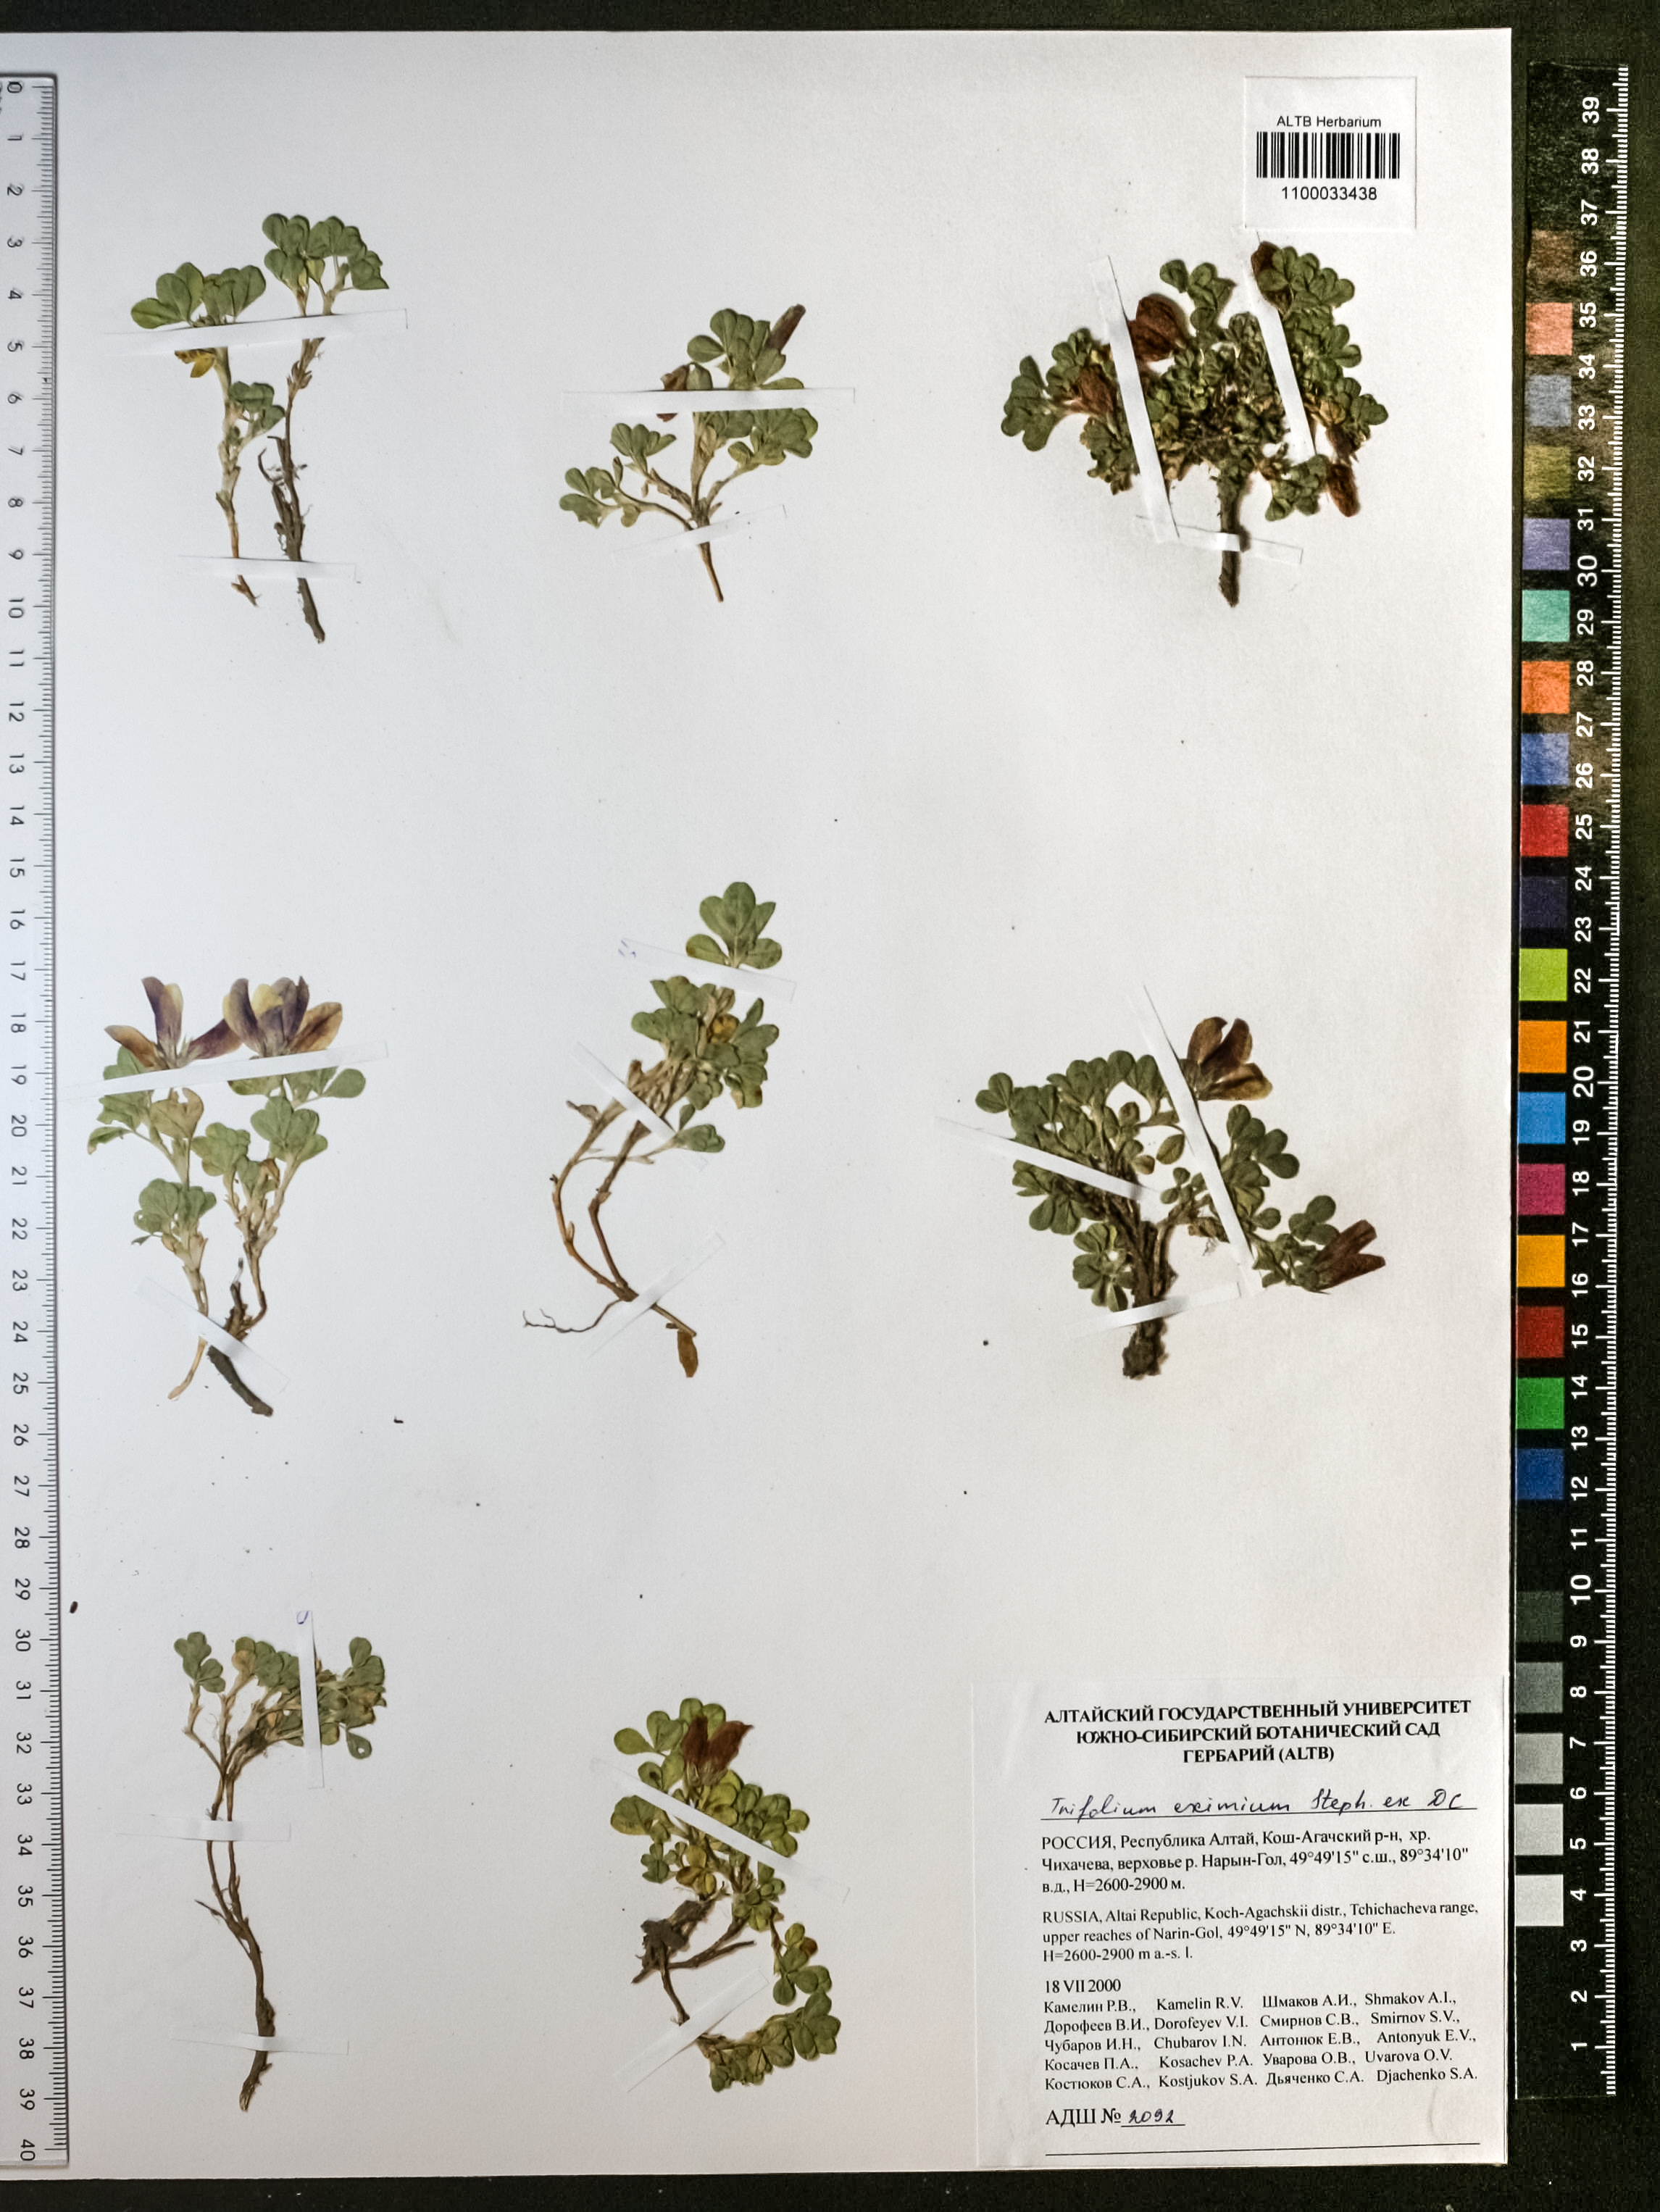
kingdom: Plantae
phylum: Tracheophyta
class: Magnoliopsida
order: Fabales
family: Fabaceae
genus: Trifolium
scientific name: Trifolium eximium
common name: Excellent clover
